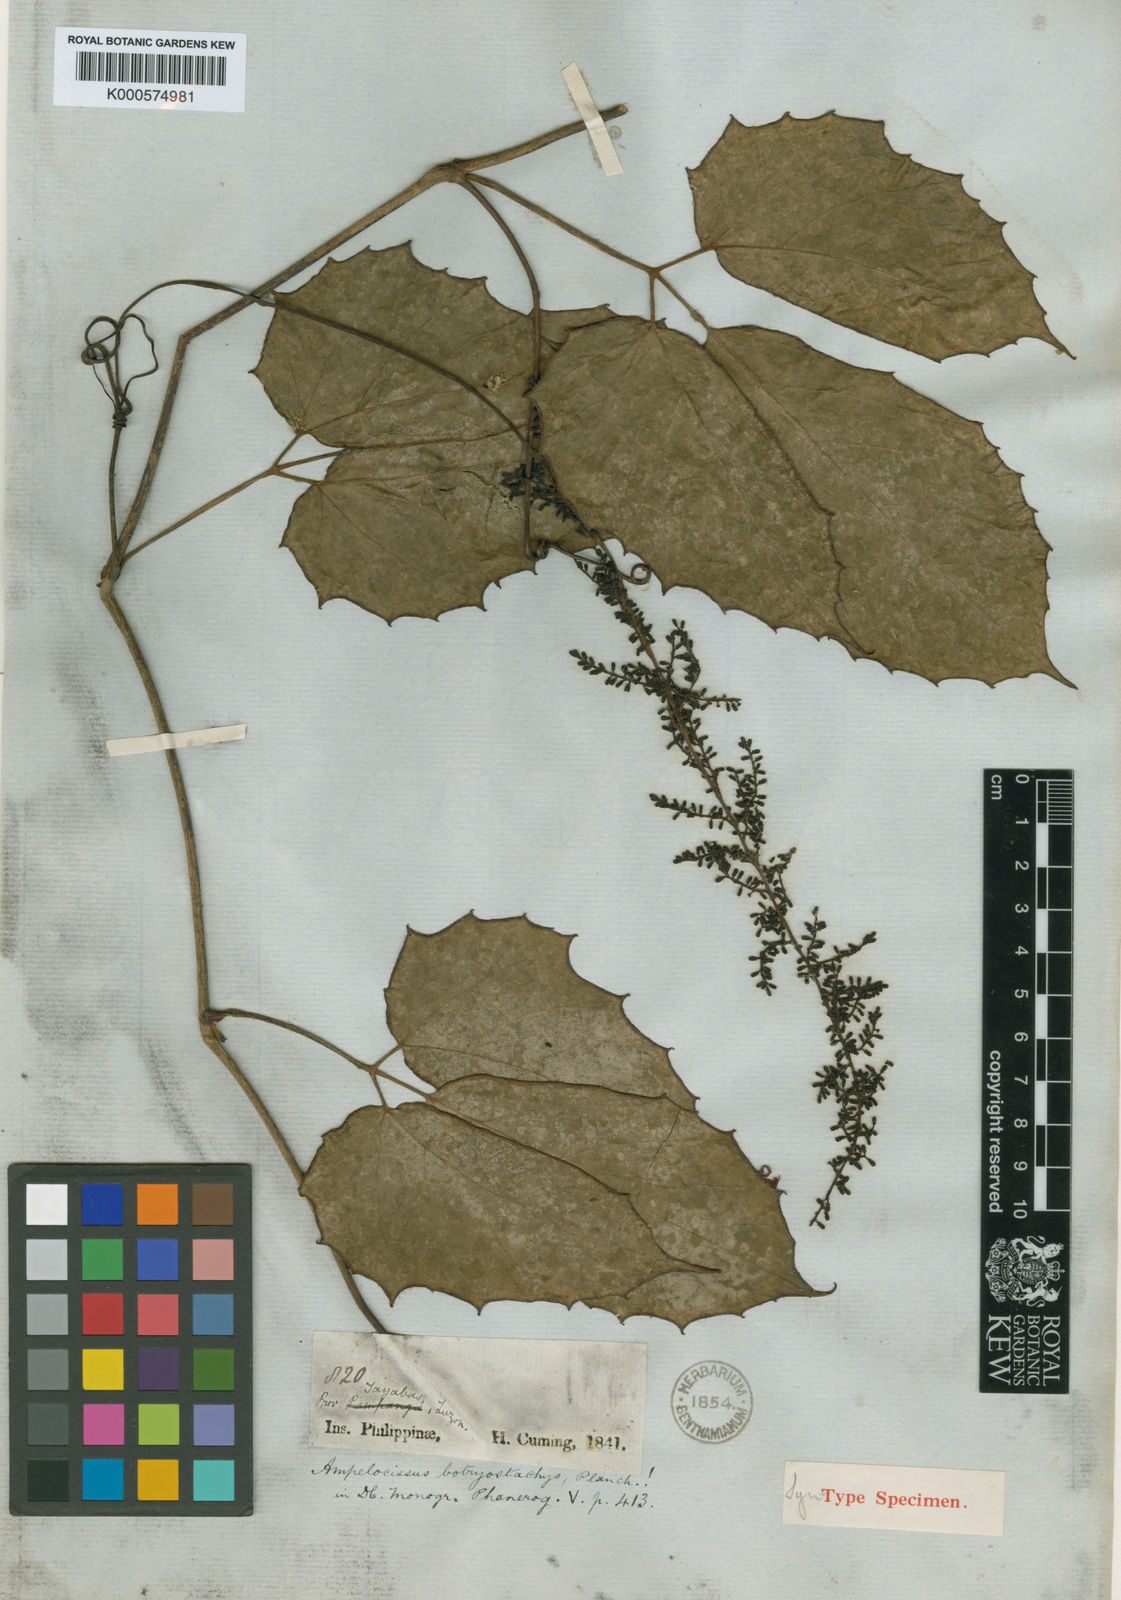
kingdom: Plantae
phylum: Tracheophyta
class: Magnoliopsida
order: Vitales
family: Vitaceae
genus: Ampelocissus
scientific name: Ampelocissus botryostachys
